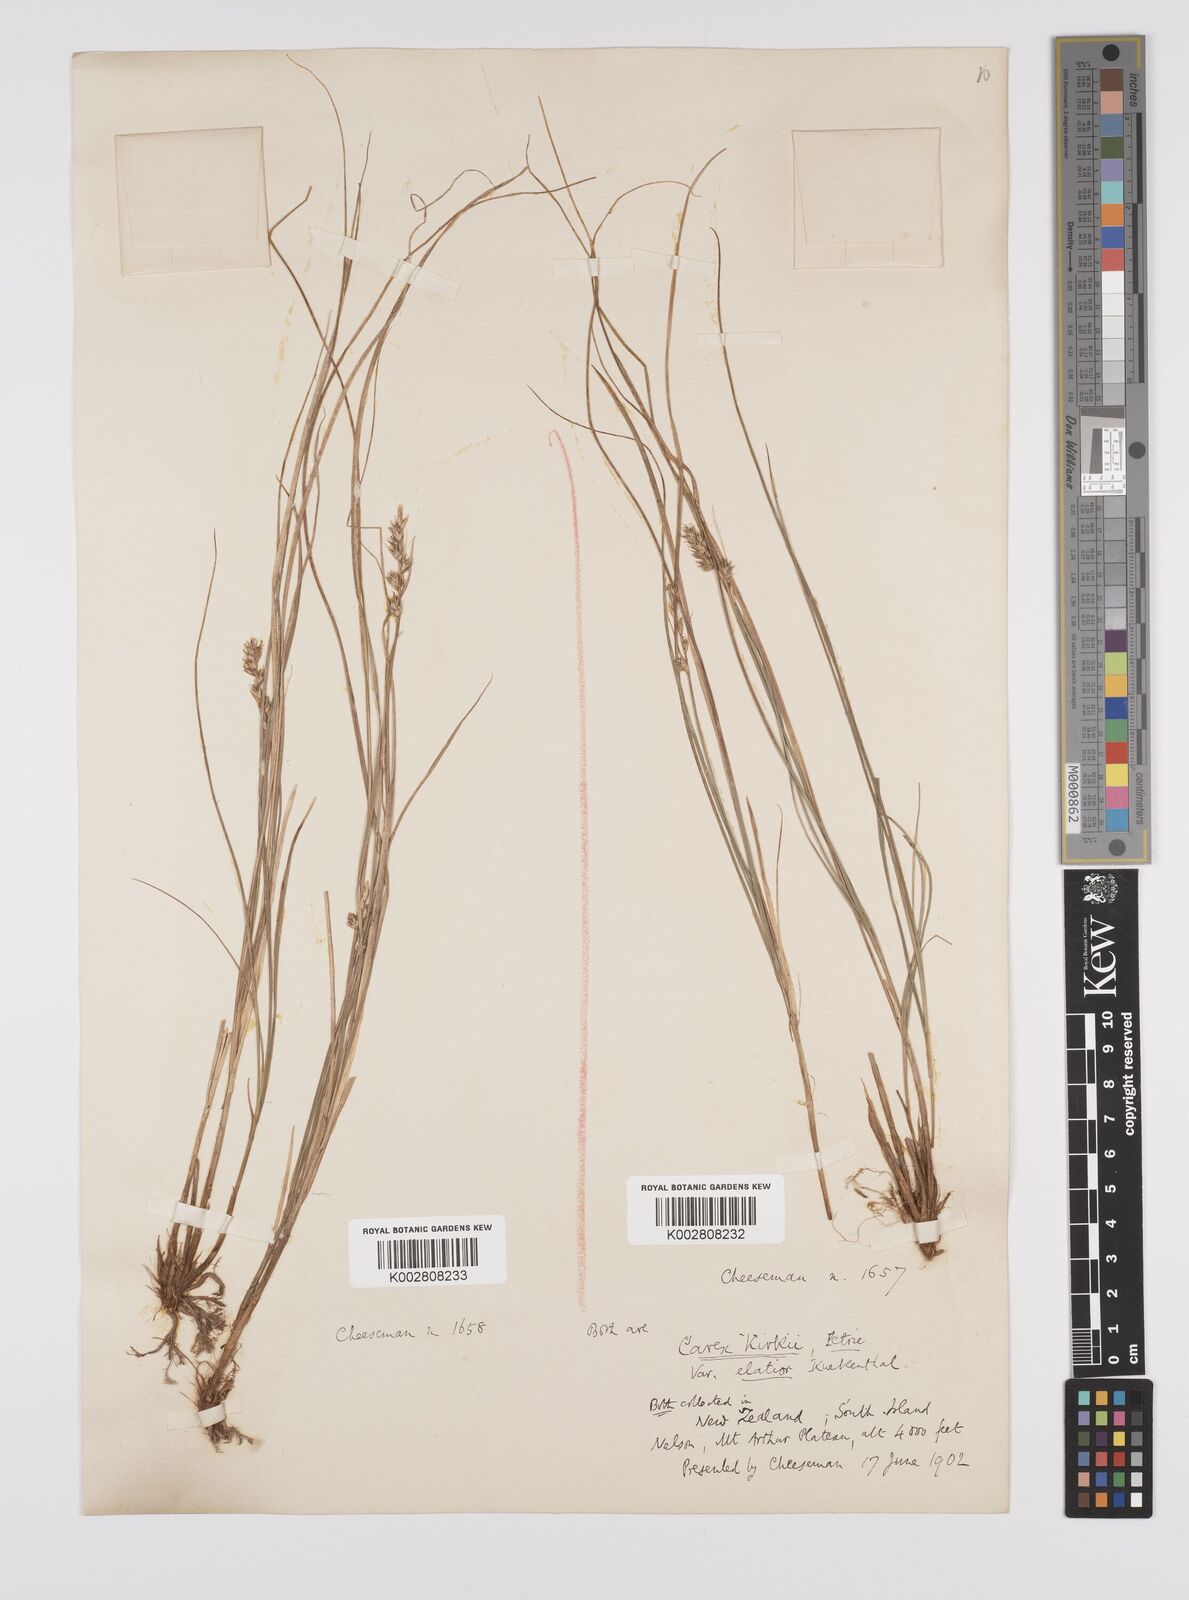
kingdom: Plantae
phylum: Tracheophyta
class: Liliopsida
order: Poales
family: Cyperaceae
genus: Carex
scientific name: Carex kirkii
